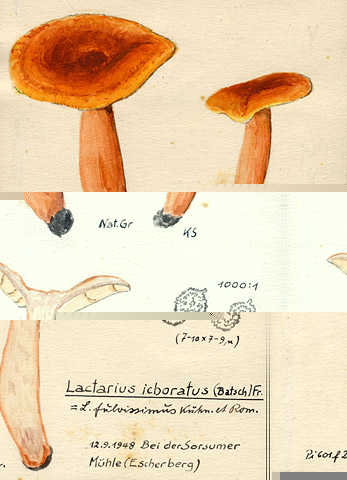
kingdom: Fungi
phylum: Basidiomycota
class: Agaricomycetes
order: Russulales
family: Russulaceae
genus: Lactarius
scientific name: Lactarius fulvissimus
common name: Tawny milkcap
